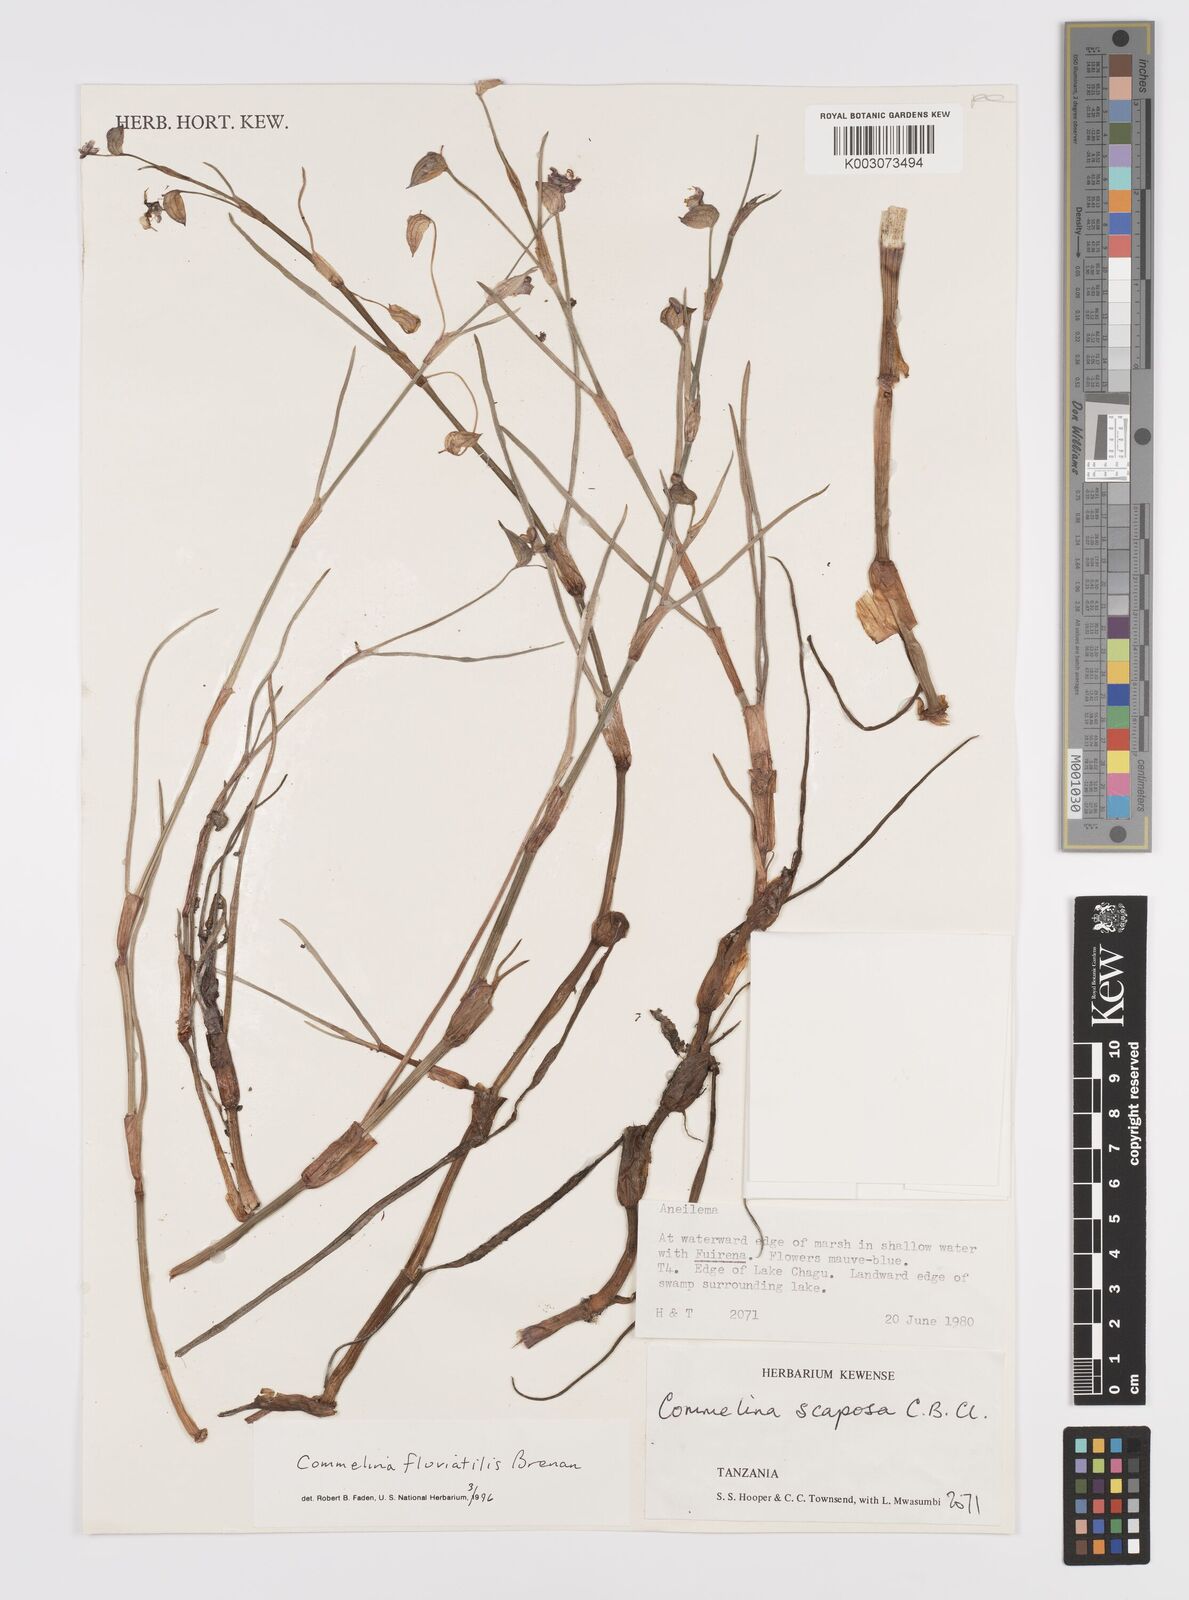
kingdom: Plantae
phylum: Tracheophyta
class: Liliopsida
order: Commelinales
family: Commelinaceae
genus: Commelina
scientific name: Commelina fluviatilis
